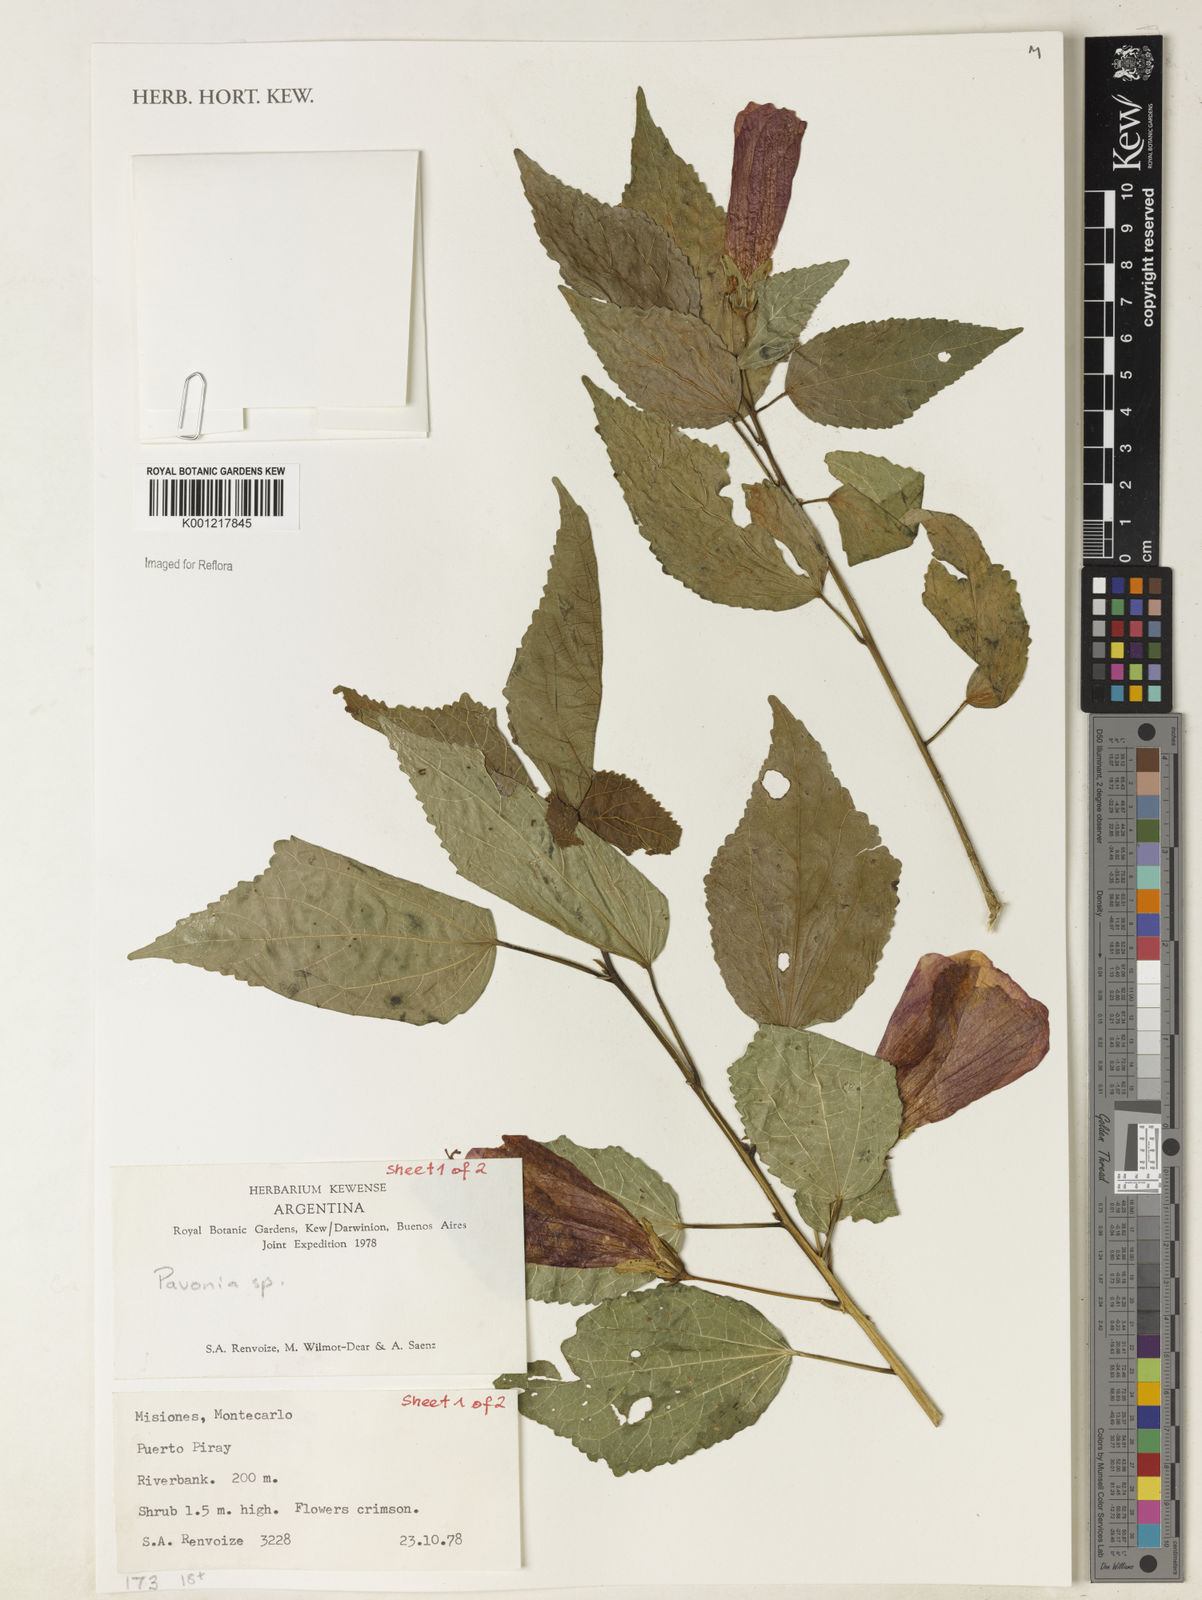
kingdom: Plantae
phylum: Tracheophyta
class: Magnoliopsida
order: Malvales
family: Malvaceae
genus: Pavonia
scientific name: Pavonia
